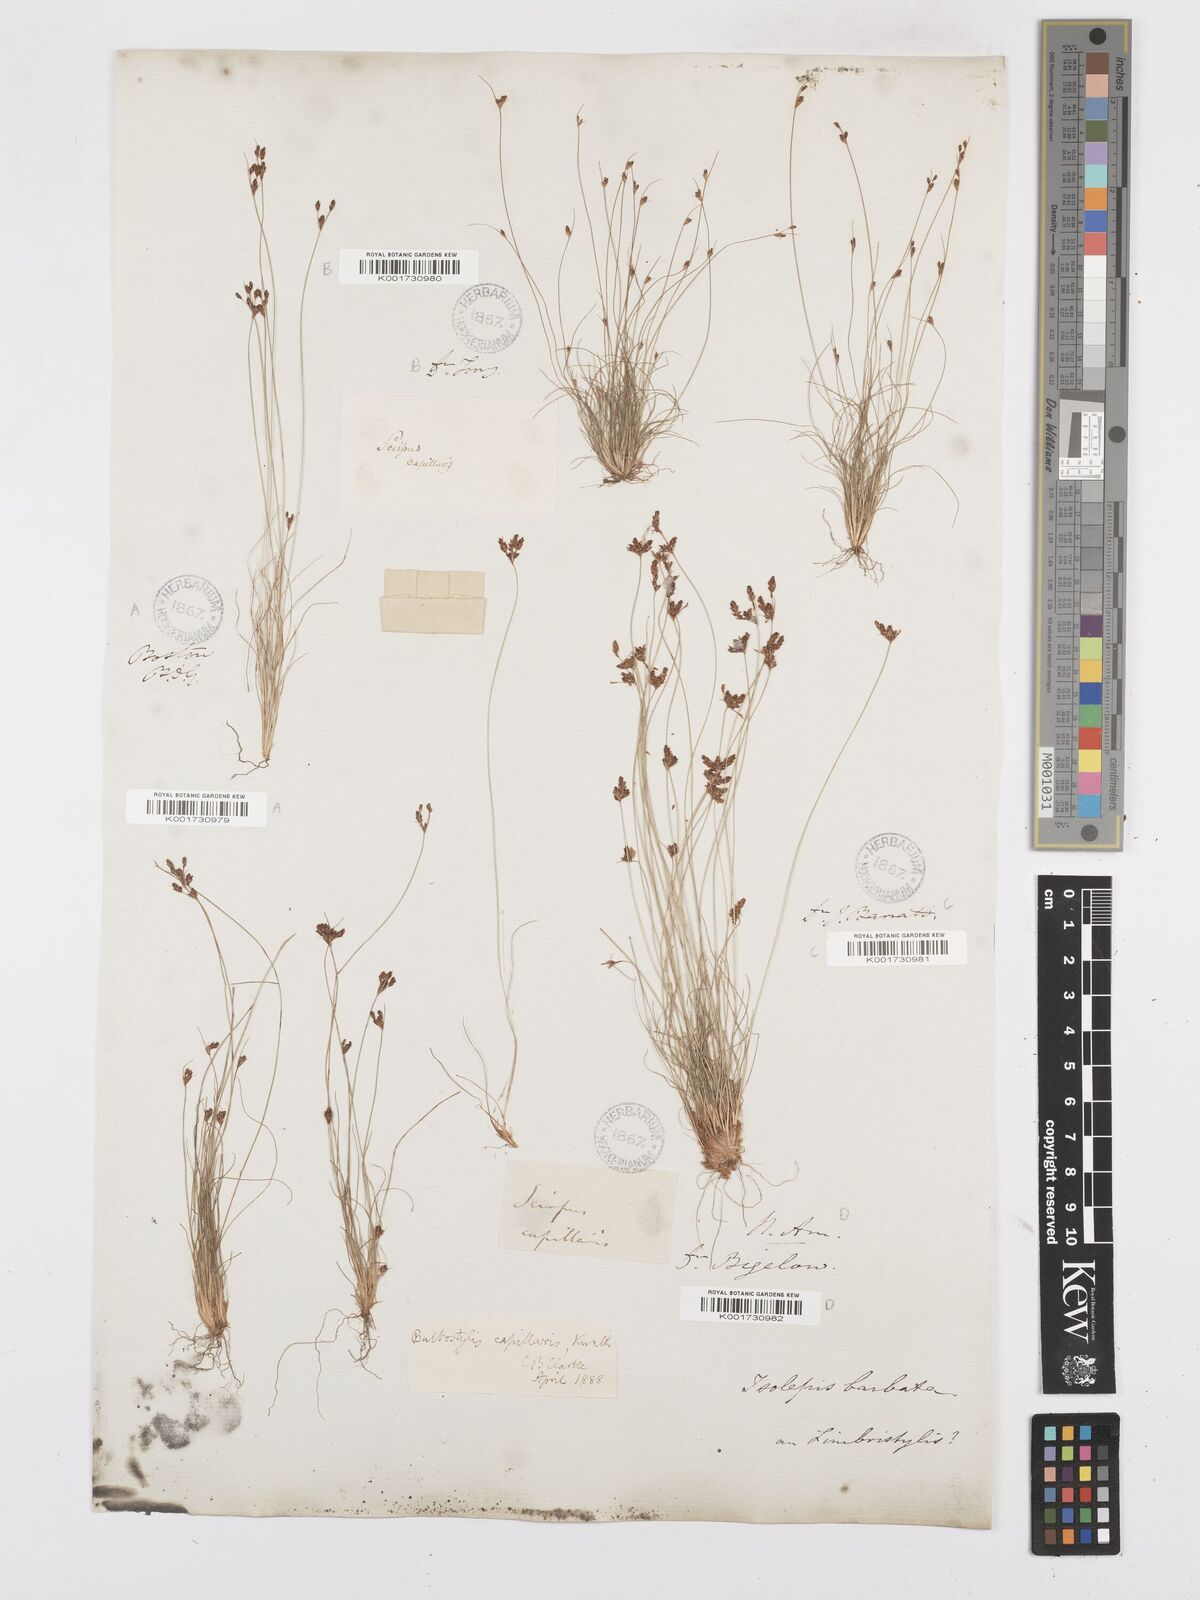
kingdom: Plantae
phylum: Tracheophyta
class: Liliopsida
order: Poales
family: Cyperaceae
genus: Bulbostylis
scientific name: Bulbostylis capillaris
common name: Densetuft hairsedge
